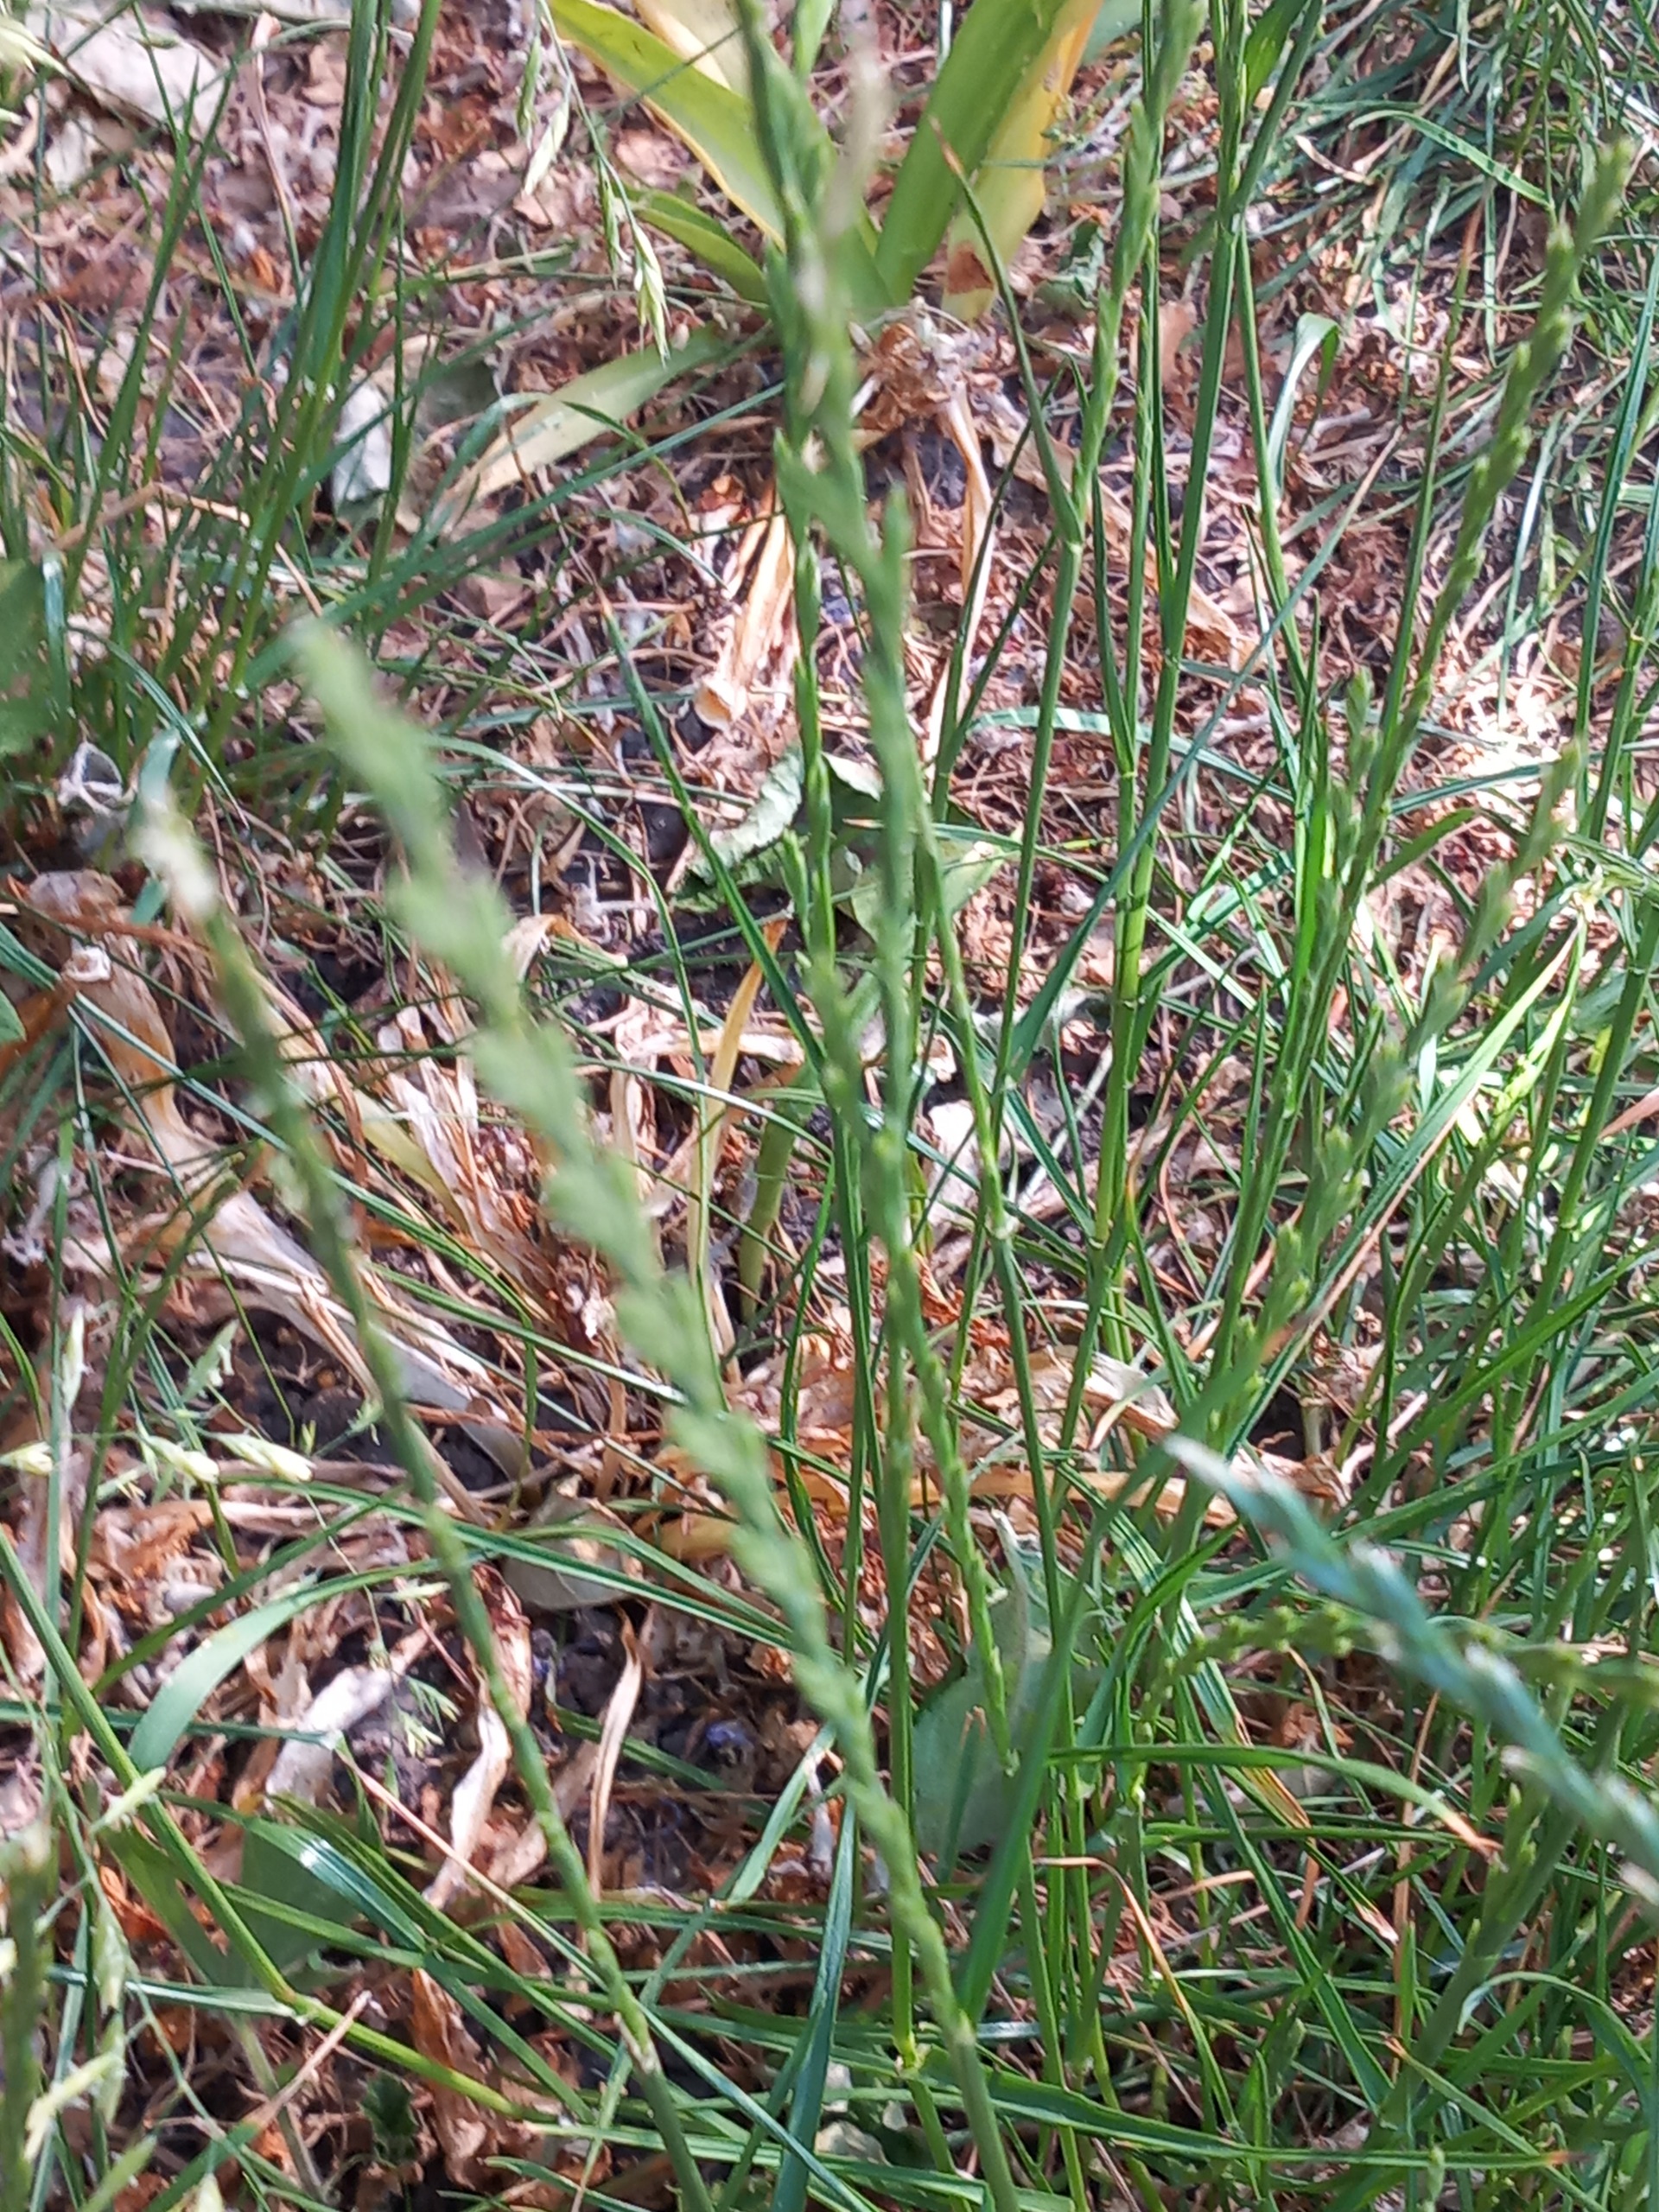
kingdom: Plantae
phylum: Tracheophyta
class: Liliopsida
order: Poales
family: Poaceae
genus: Lolium
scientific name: Lolium perenne
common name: Almindelig rajgræs
